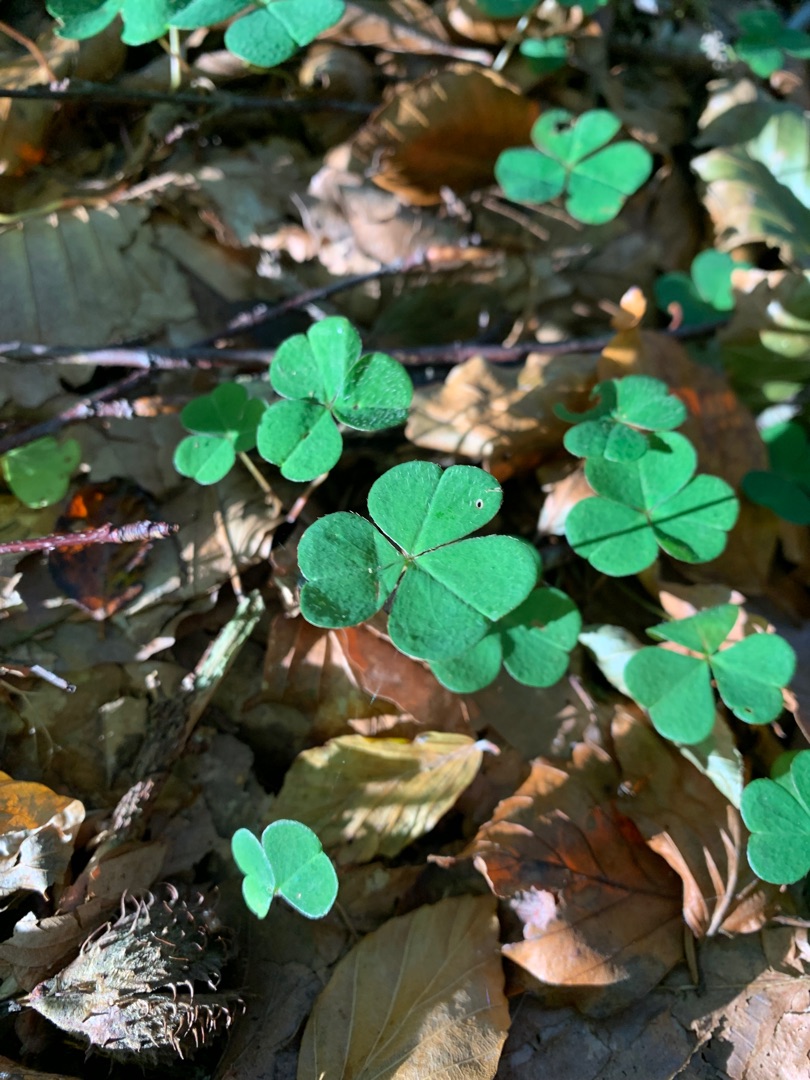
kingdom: Plantae
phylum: Tracheophyta
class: Magnoliopsida
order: Oxalidales
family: Oxalidaceae
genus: Oxalis
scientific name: Oxalis acetosella
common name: Skovsyre
